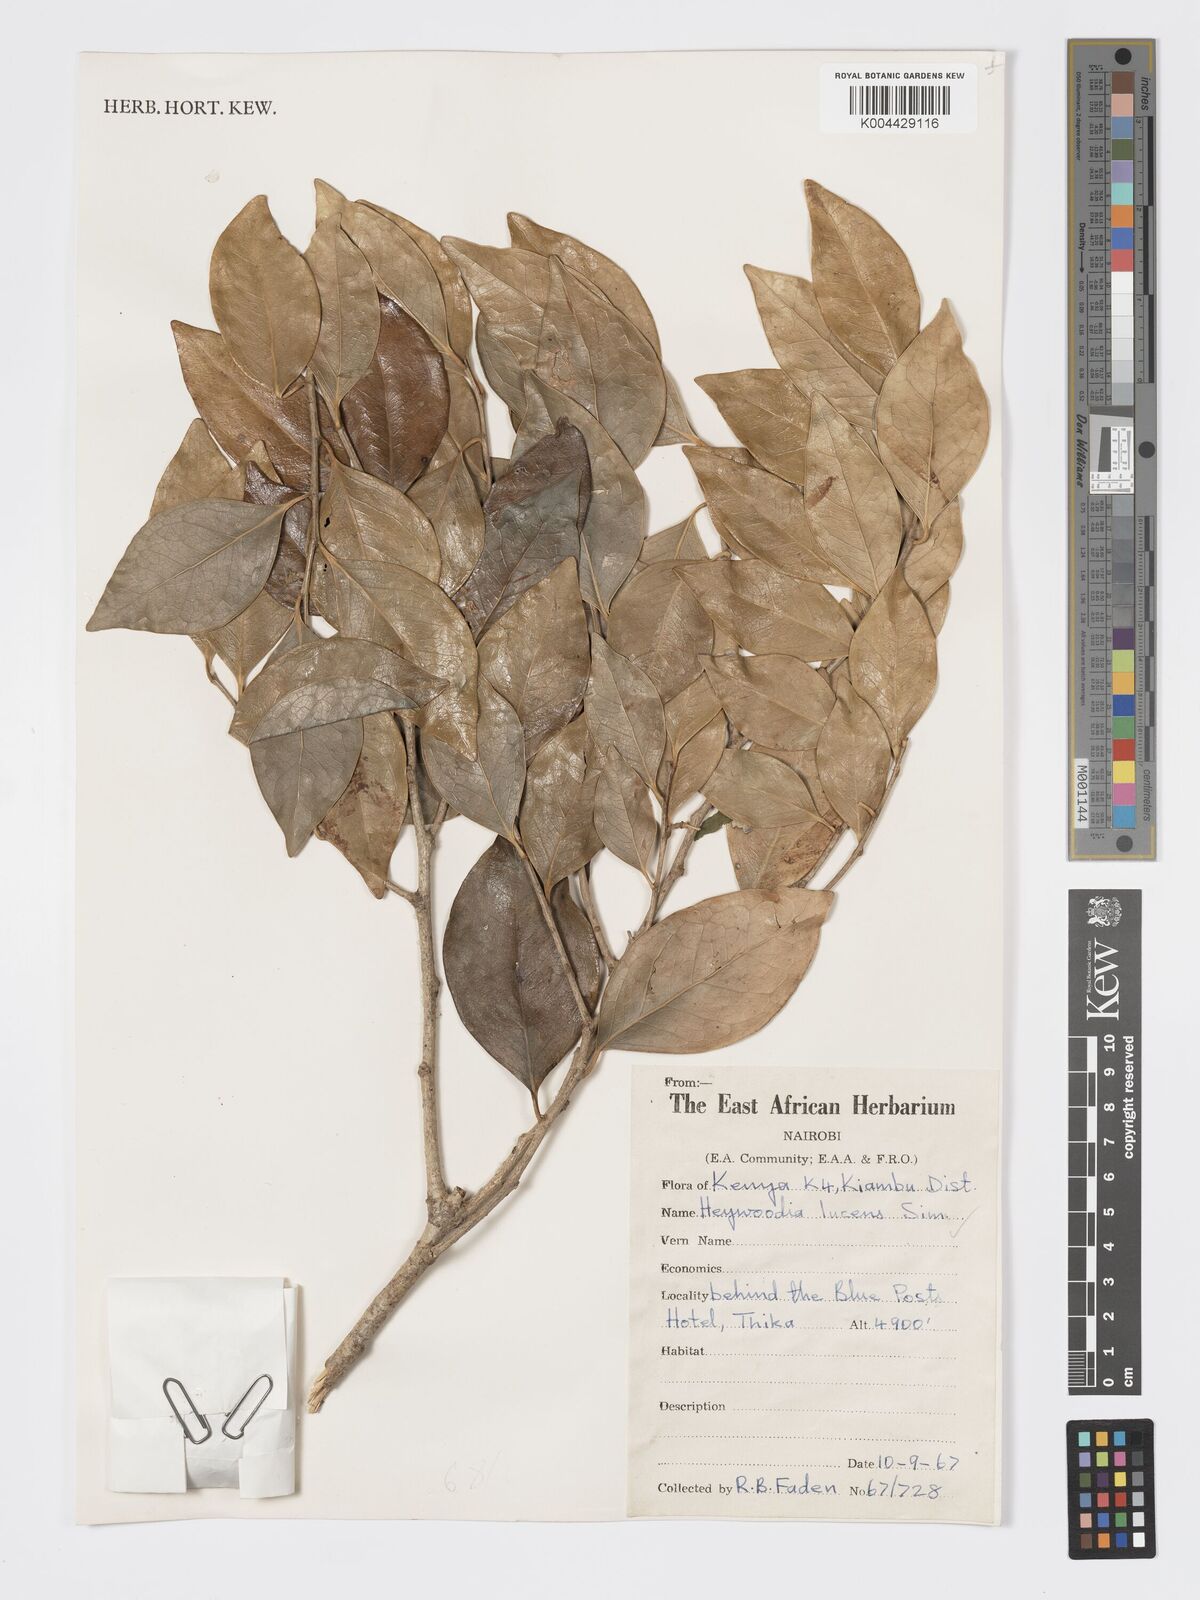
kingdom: Plantae
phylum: Tracheophyta
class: Magnoliopsida
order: Malpighiales
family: Phyllanthaceae
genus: Heywoodia
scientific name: Heywoodia lucens
